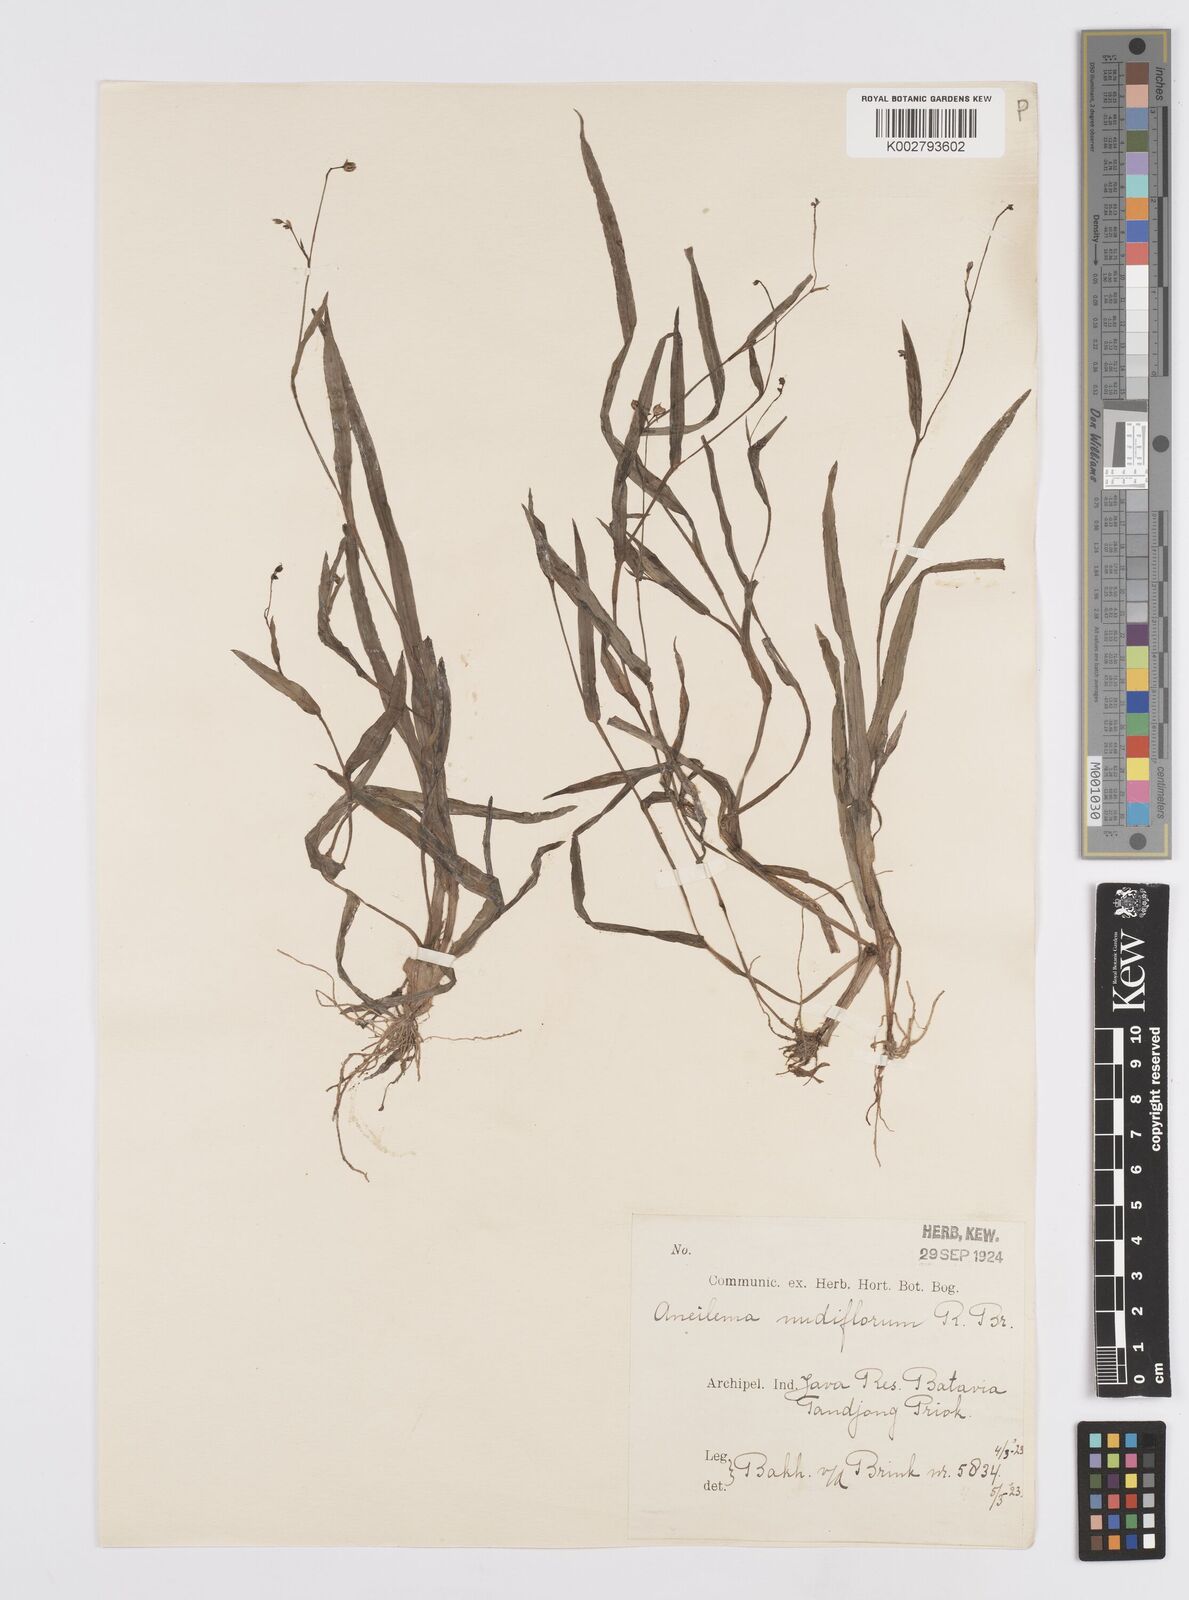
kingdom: Plantae
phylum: Tracheophyta
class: Liliopsida
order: Commelinales
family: Commelinaceae
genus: Murdannia
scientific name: Murdannia nudiflora
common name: Nakedstem dewflower
